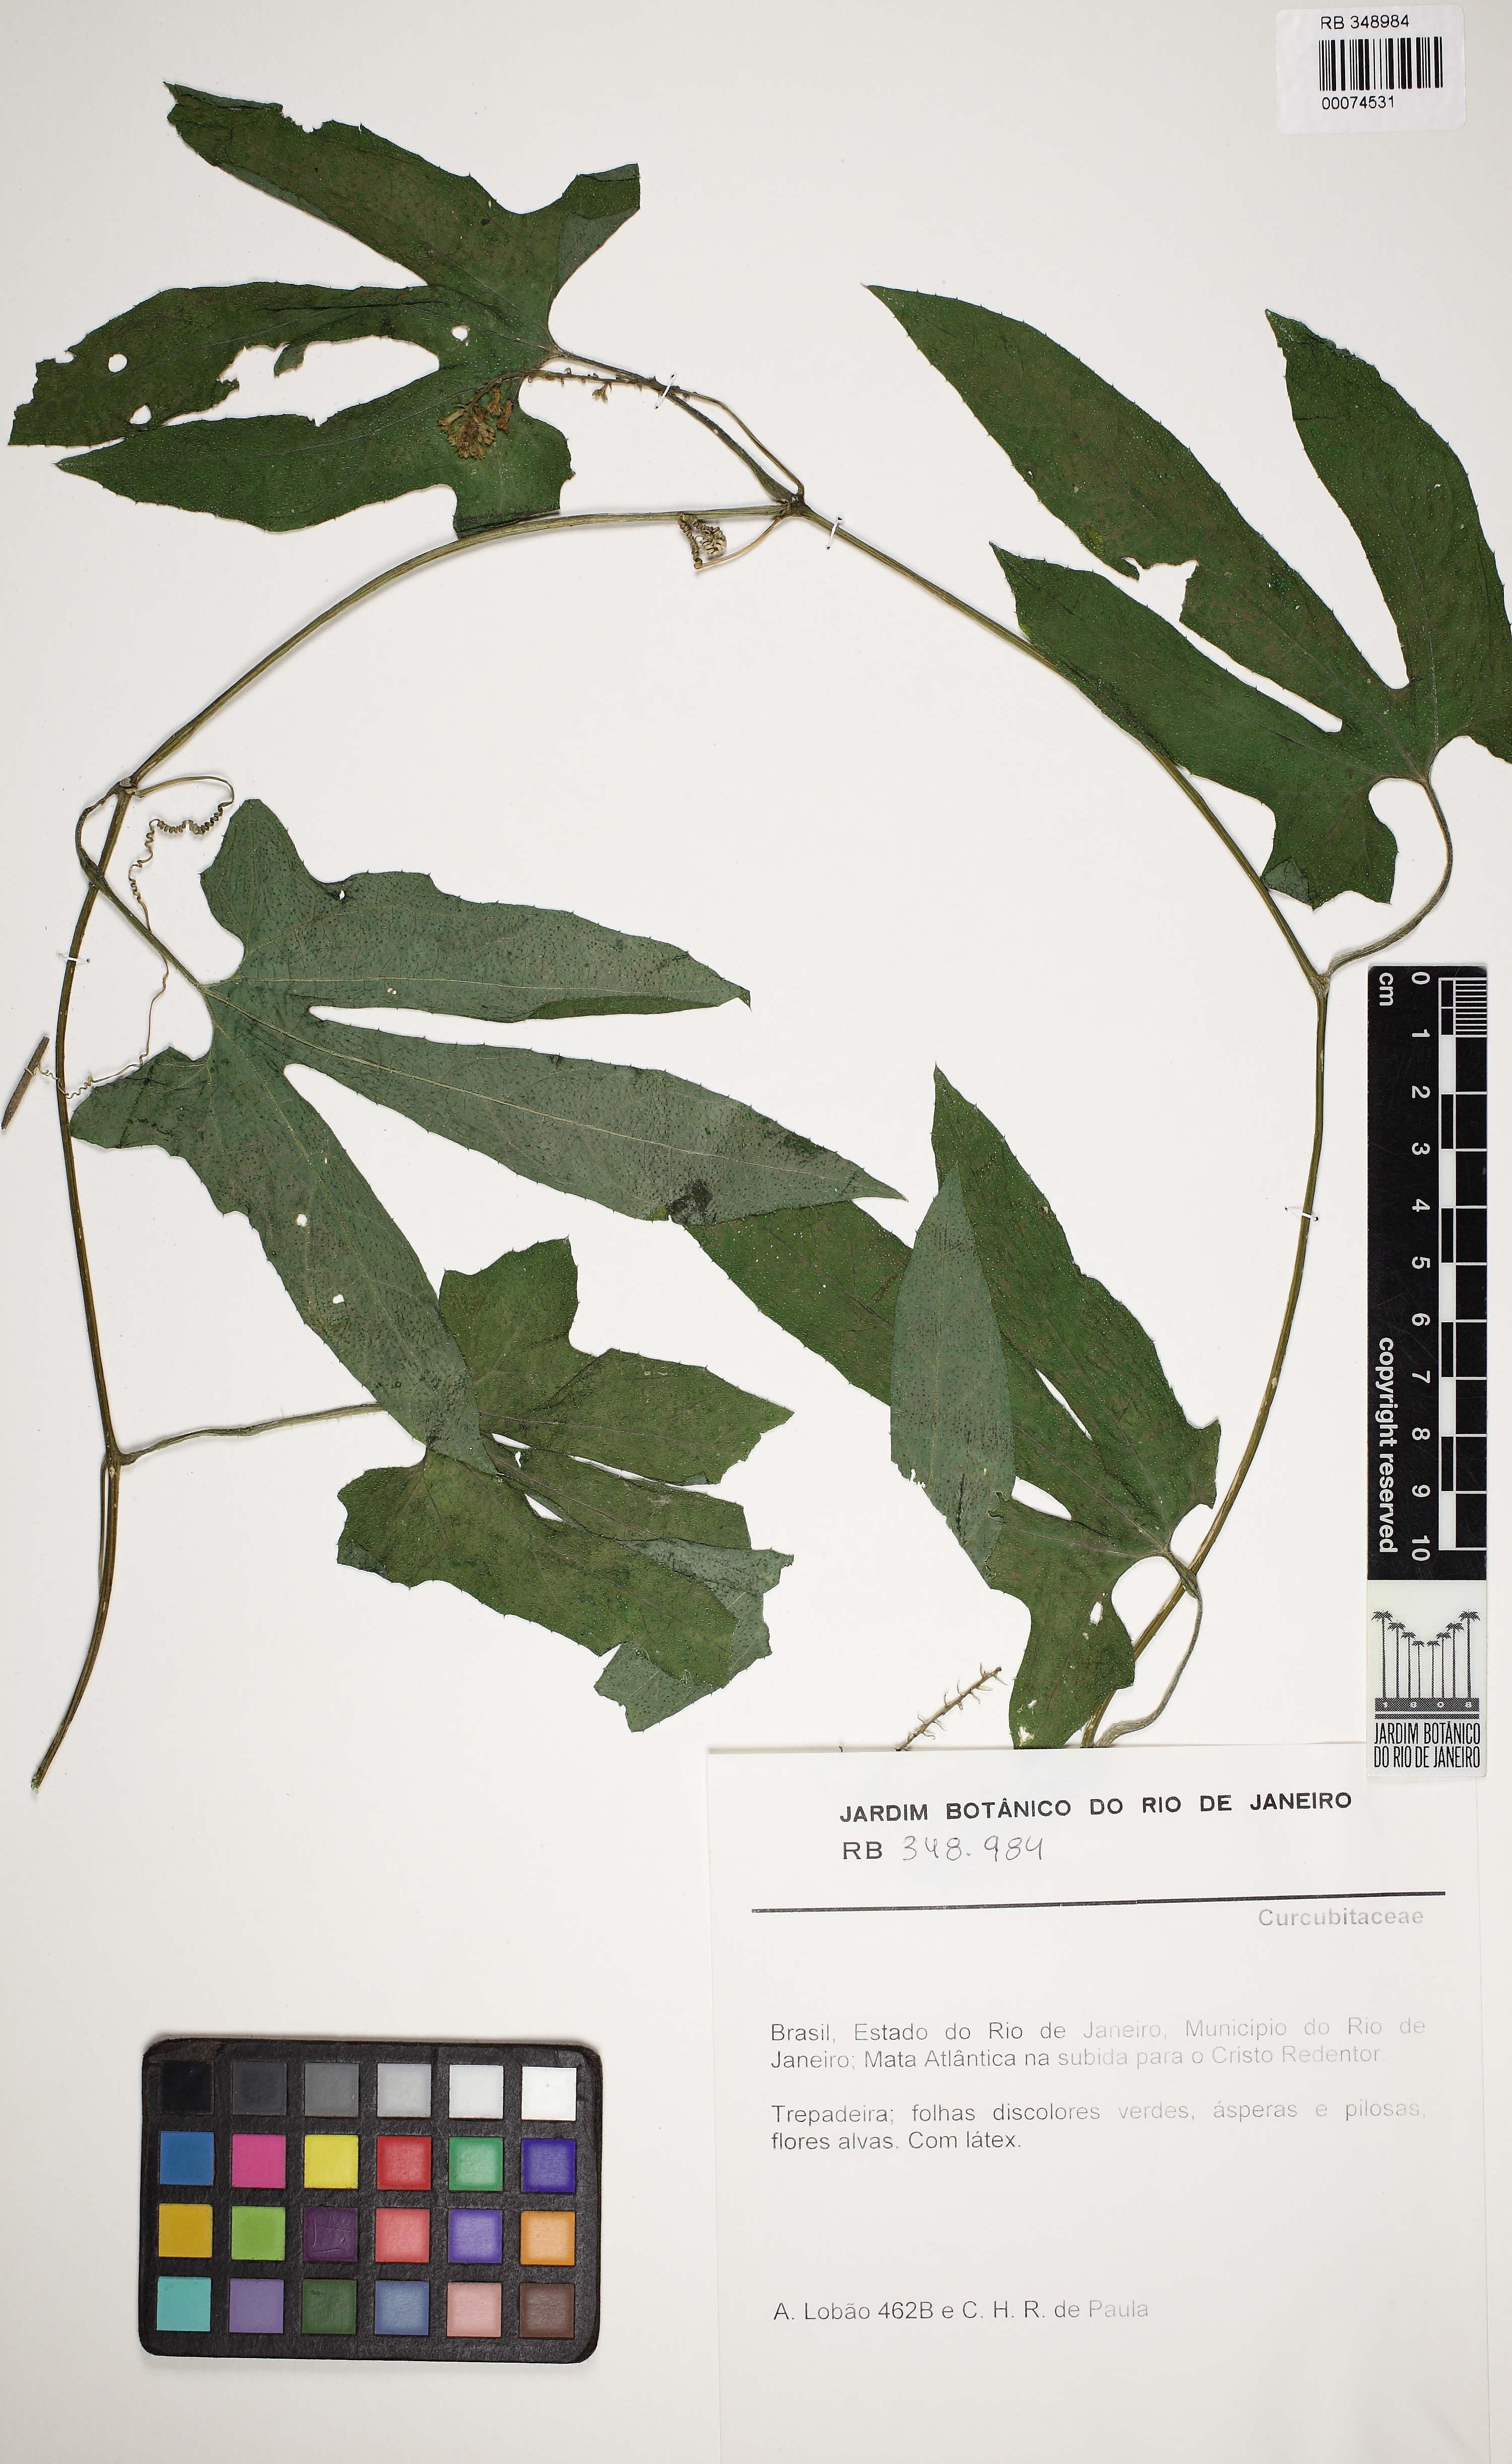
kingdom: Plantae
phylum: Tracheophyta
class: Magnoliopsida
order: Malvales
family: Malvaceae
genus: Quararibea
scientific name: Quararibea angustifolia
